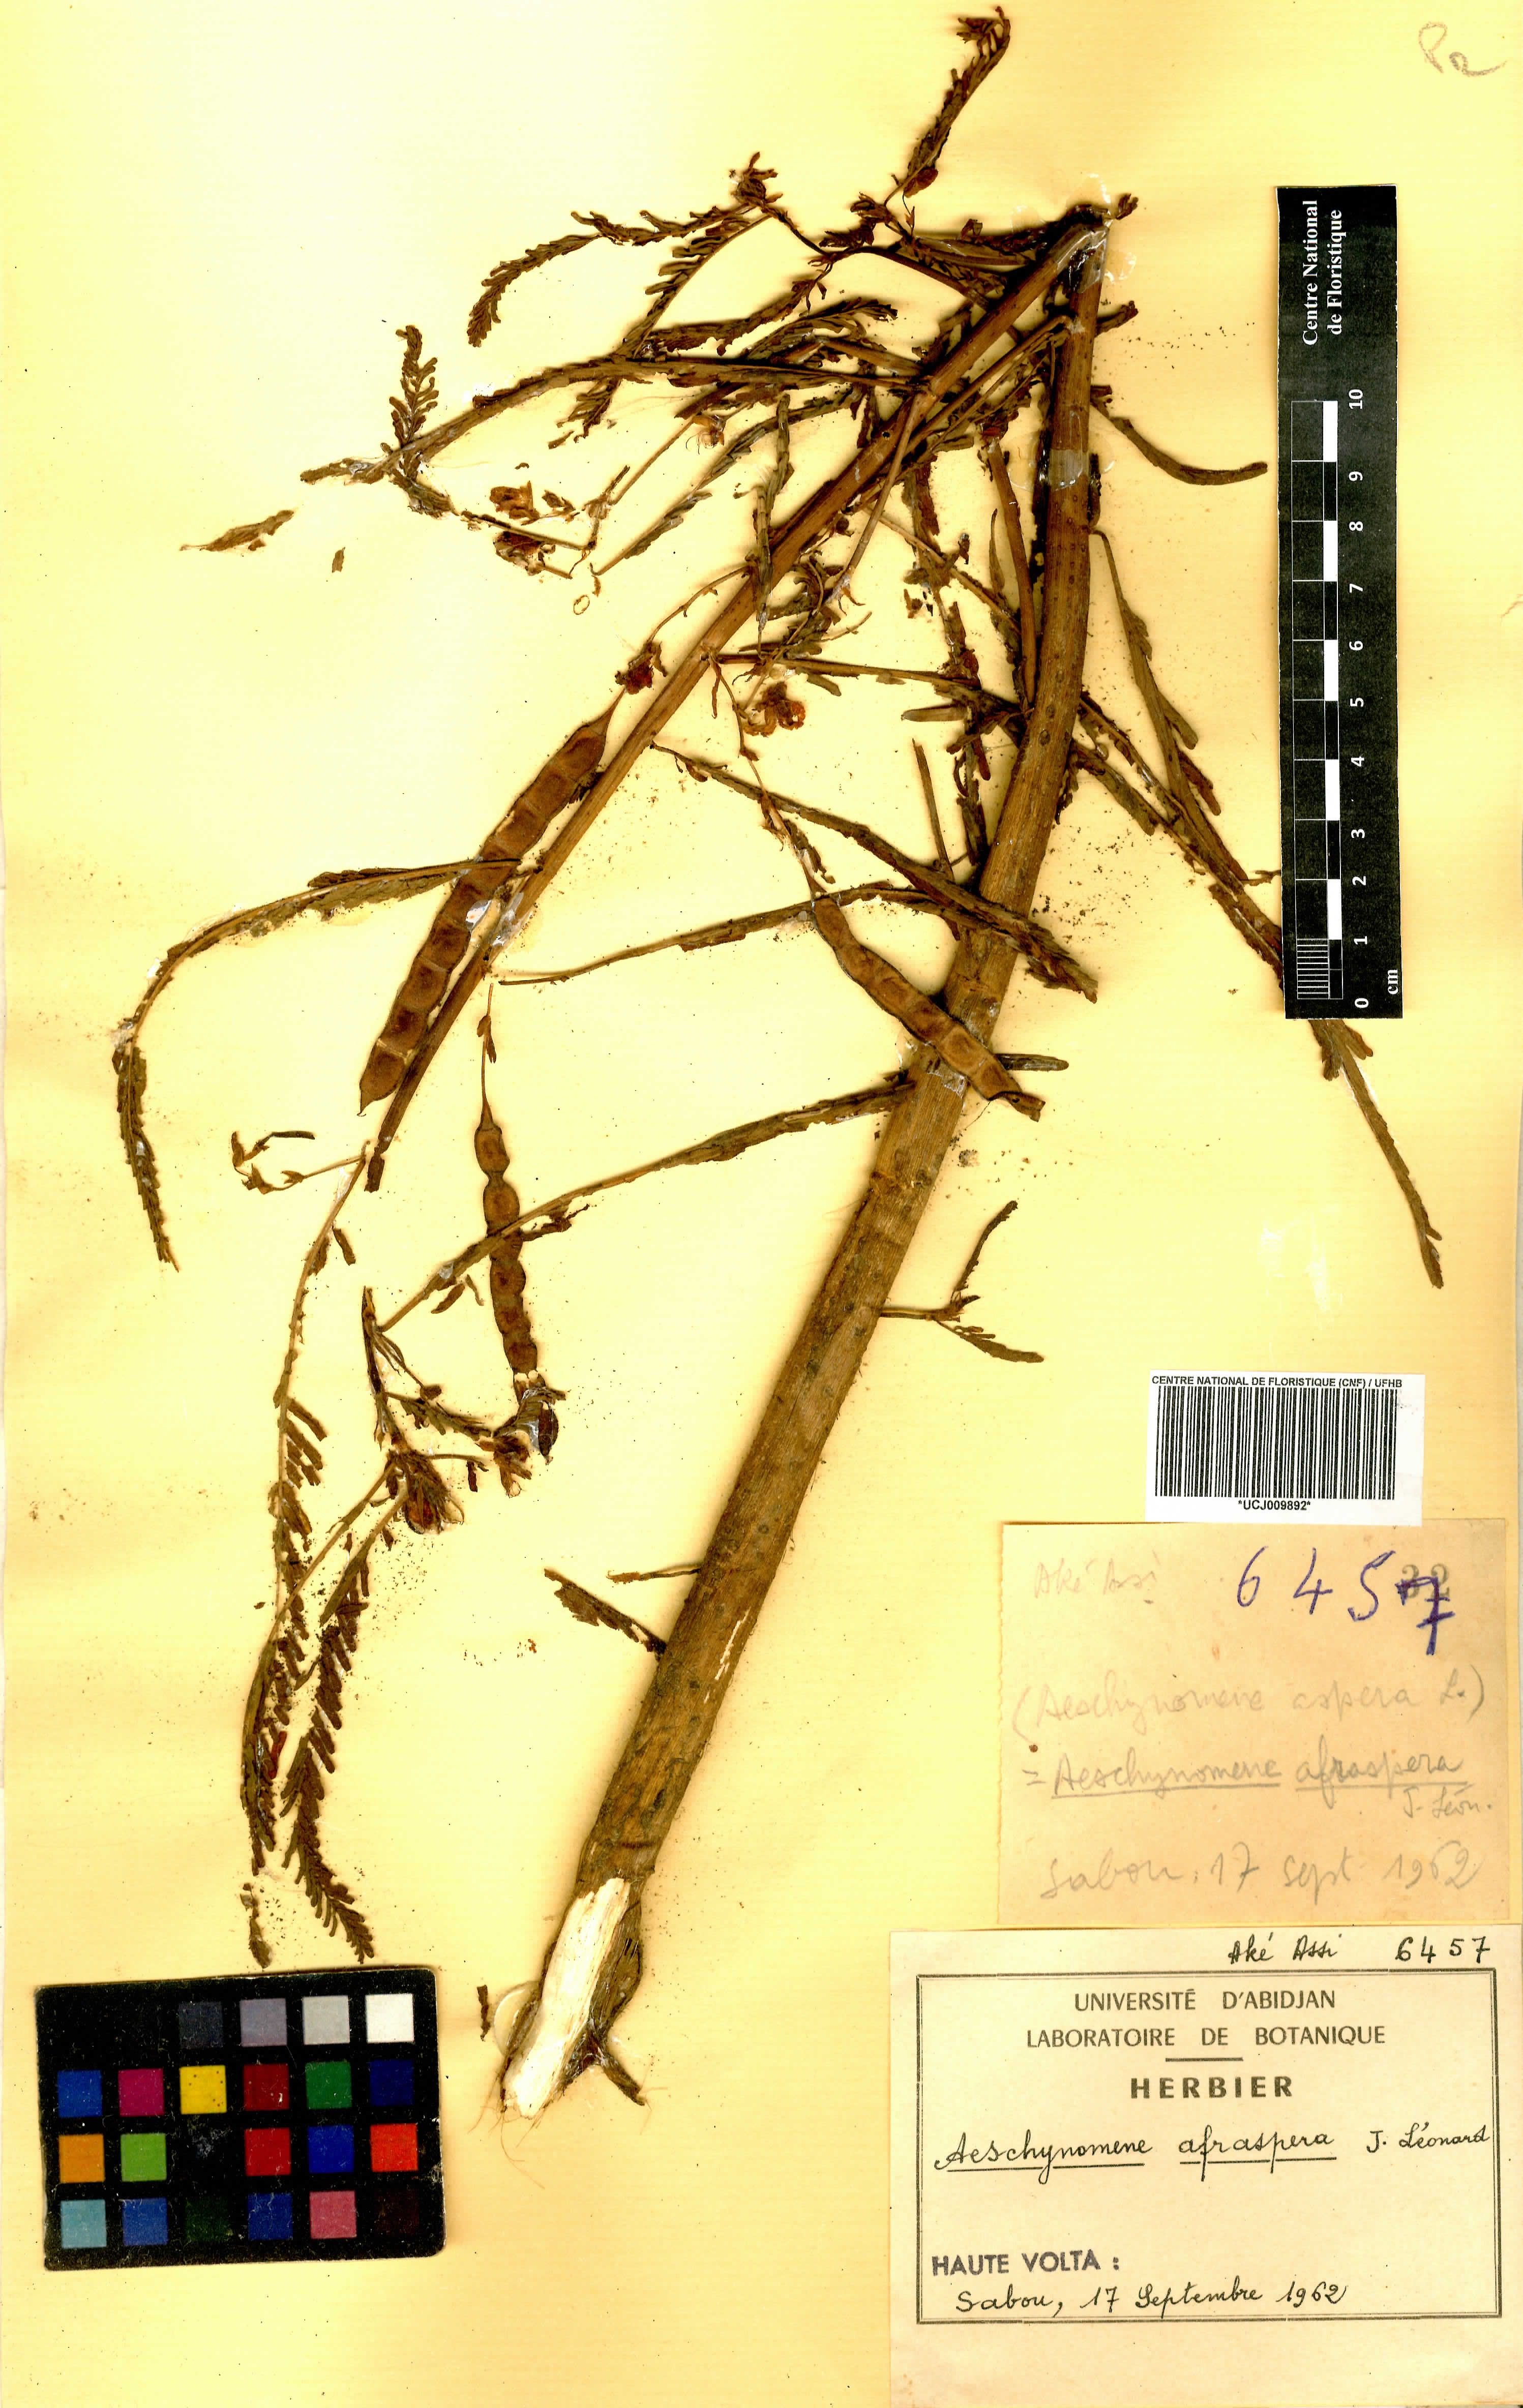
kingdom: Plantae
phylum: Tracheophyta
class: Magnoliopsida
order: Fabales
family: Fabaceae
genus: Aeschynomene
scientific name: Aeschynomene afraspera
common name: Sola pith
